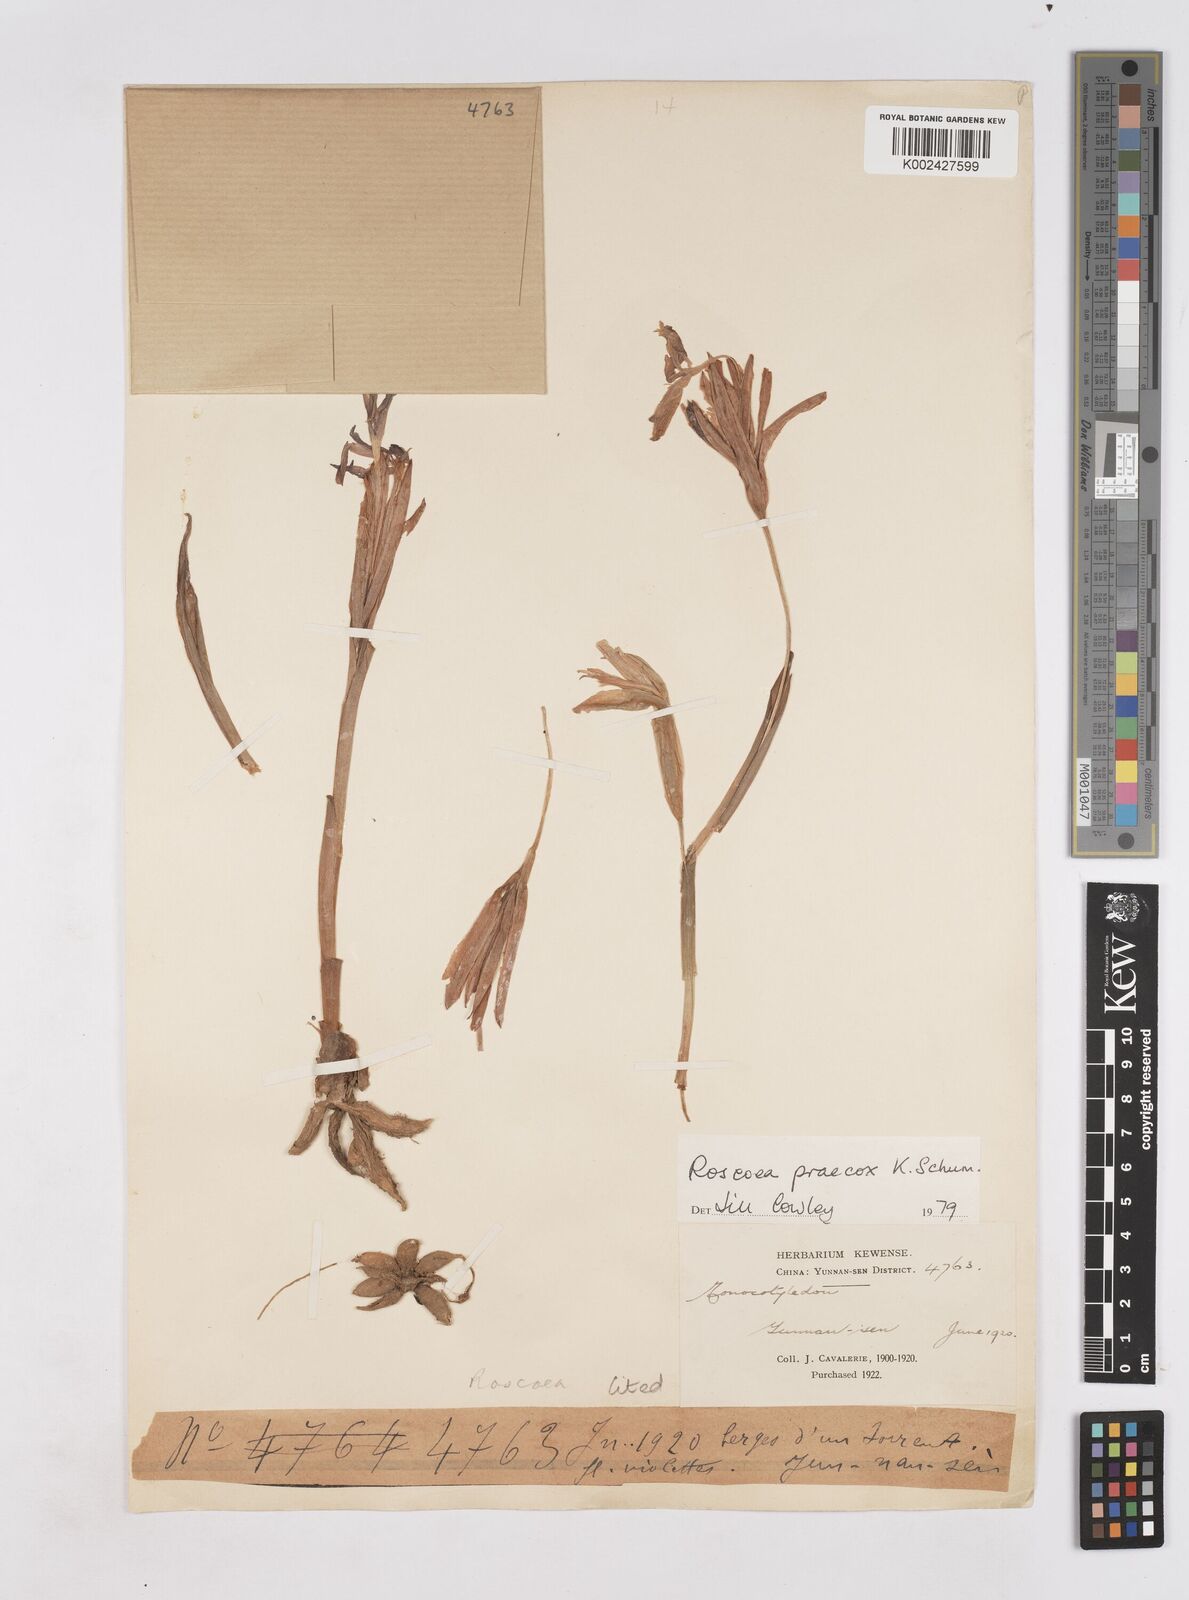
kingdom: Plantae
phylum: Tracheophyta
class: Liliopsida
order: Zingiberales
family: Zingiberaceae
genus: Roscoea
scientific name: Roscoea praecox
